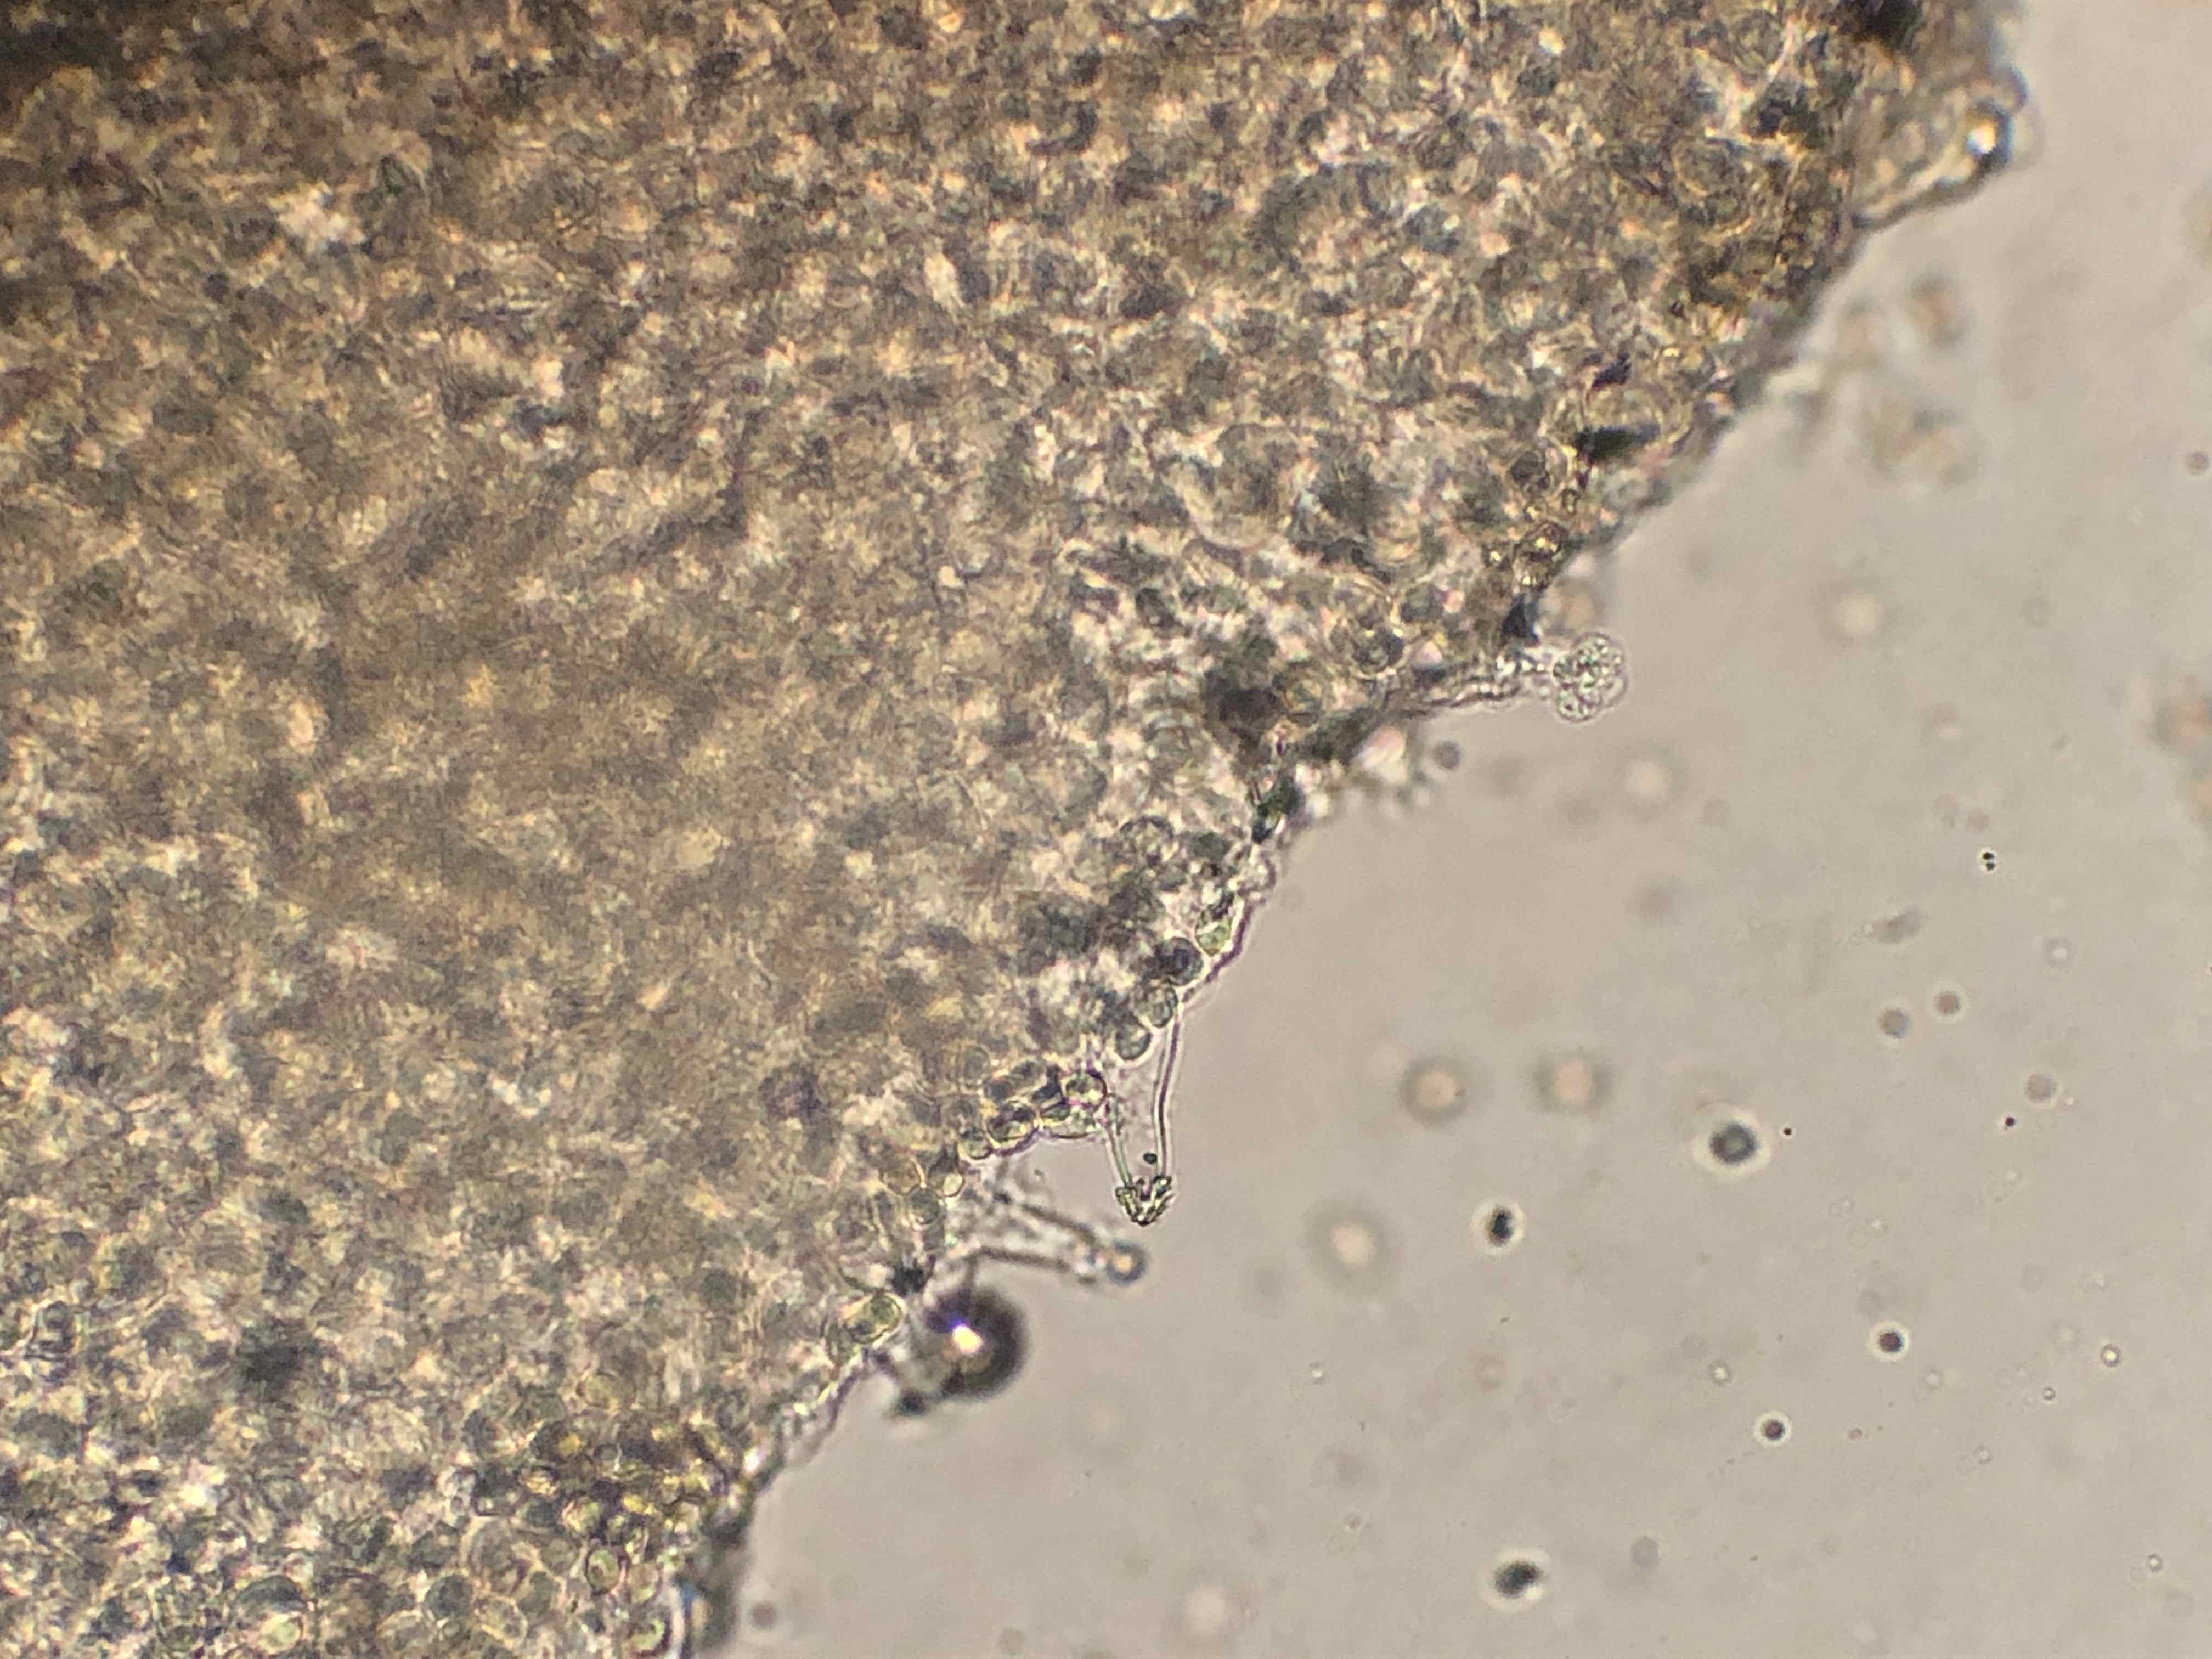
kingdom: Fungi
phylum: Basidiomycota
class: Agaricomycetes
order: Agaricales
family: Tricholomataceae
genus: Melanoleuca
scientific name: Melanoleuca cognata
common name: gyldengrå munkehat
